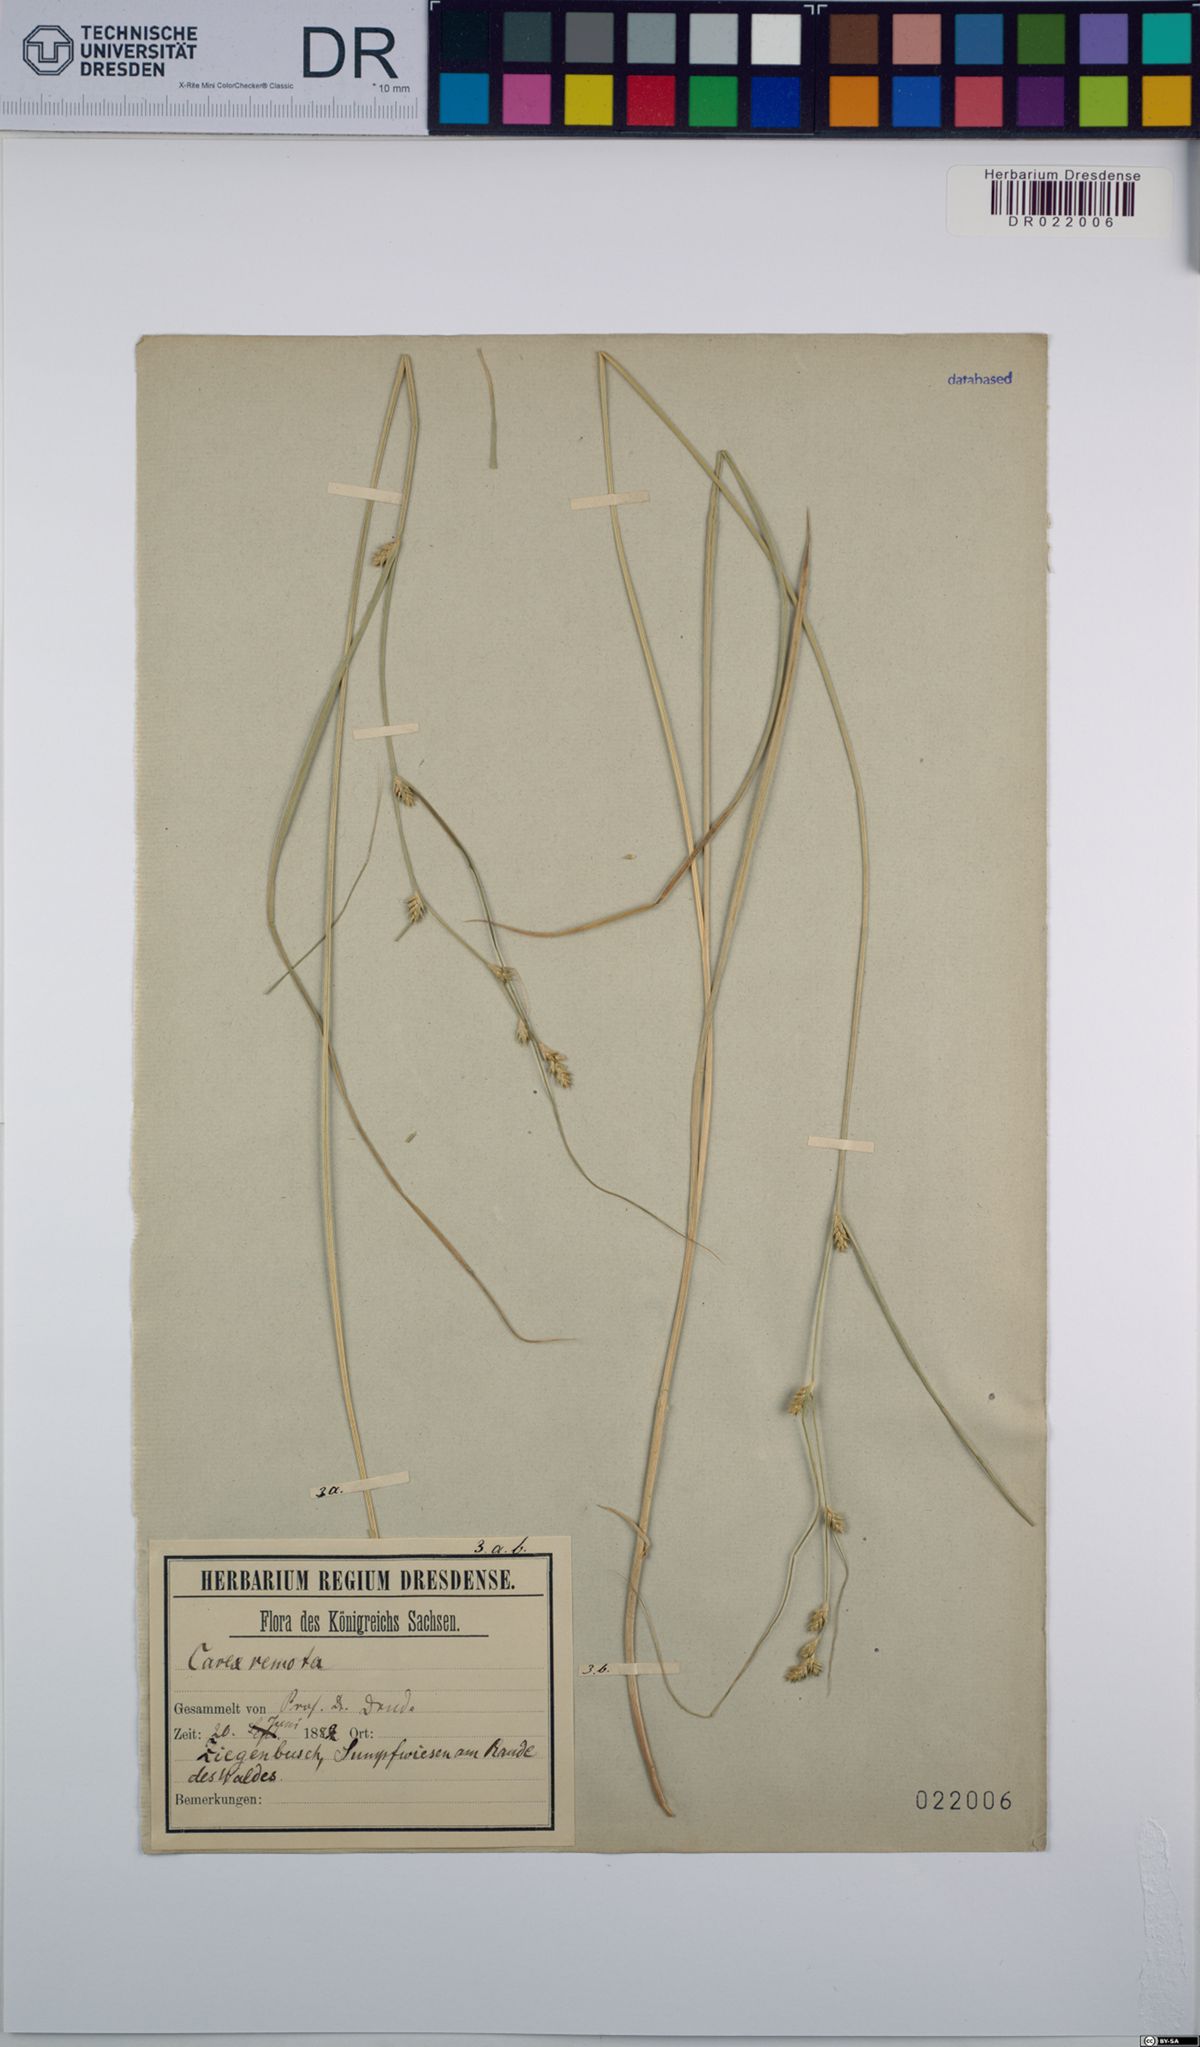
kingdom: Plantae
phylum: Tracheophyta
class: Liliopsida
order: Poales
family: Cyperaceae
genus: Carex
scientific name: Carex remota
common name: Remote sedge
